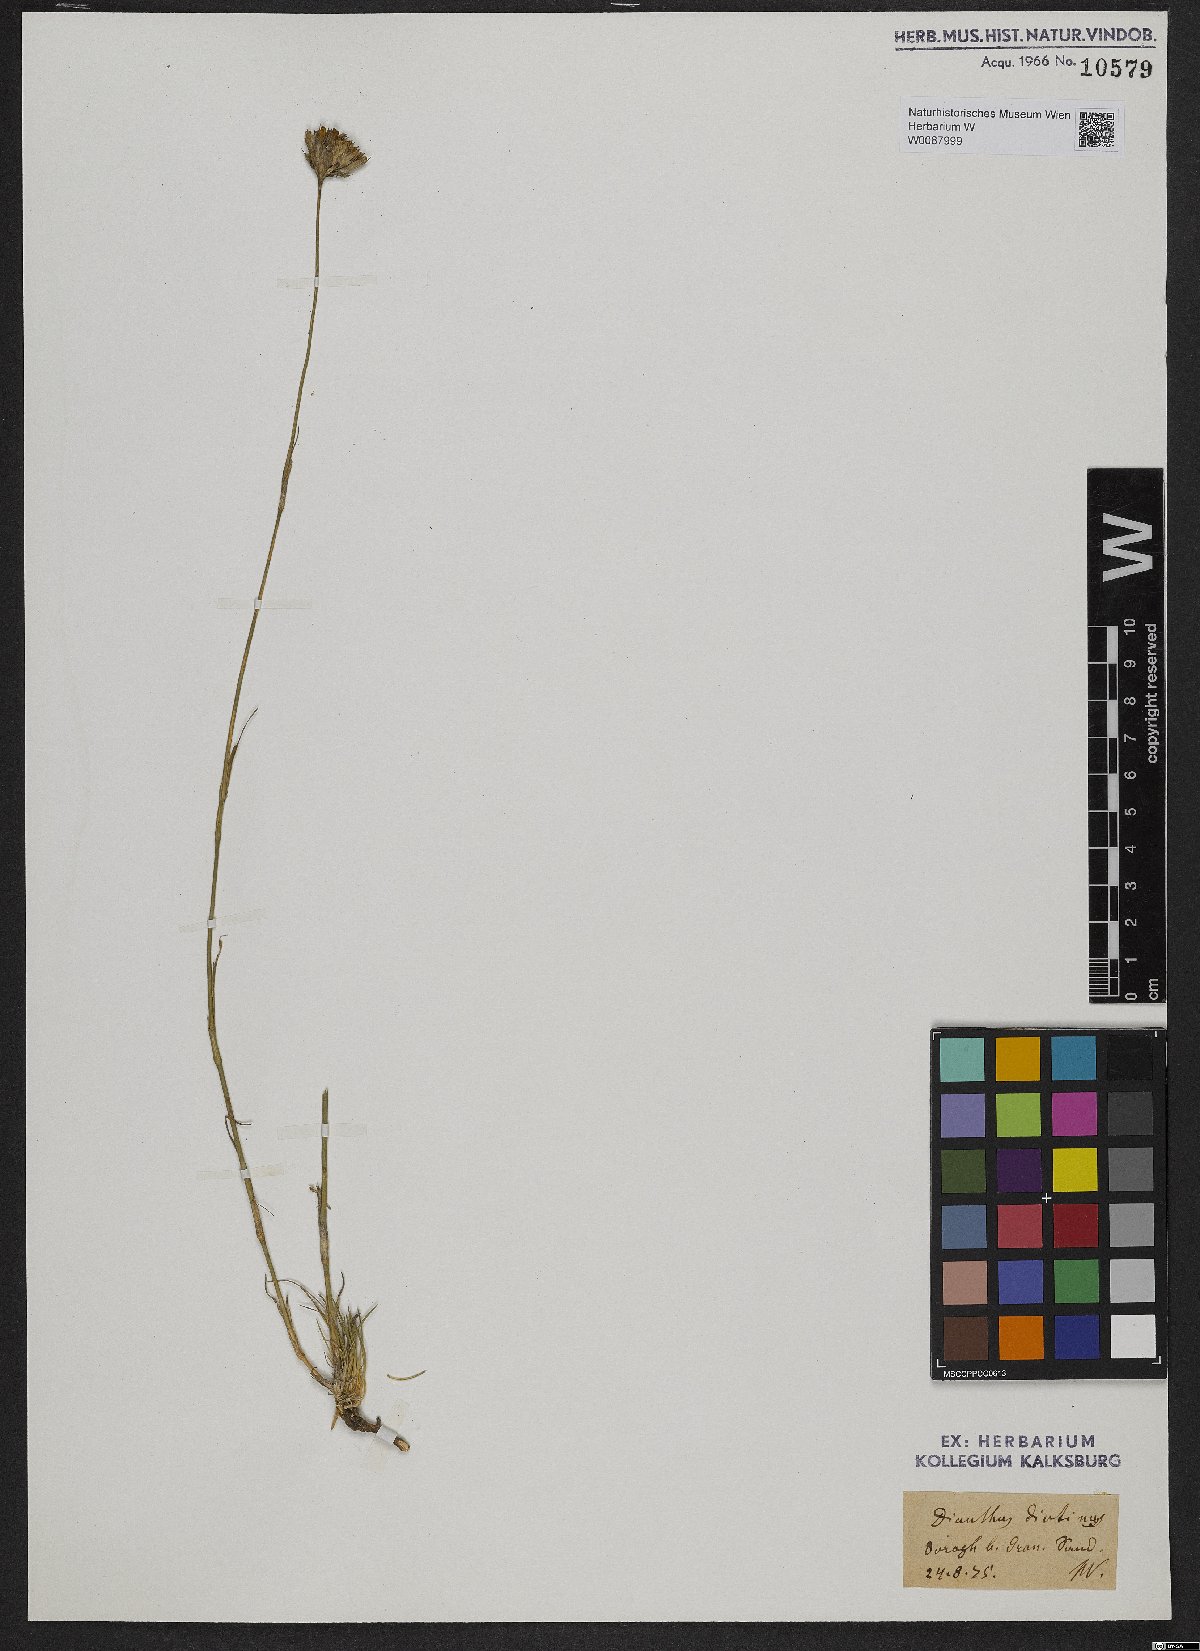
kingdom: Plantae
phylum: Tracheophyta
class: Magnoliopsida
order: Caryophyllales
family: Caryophyllaceae
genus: Dianthus
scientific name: Dianthus pontederae
